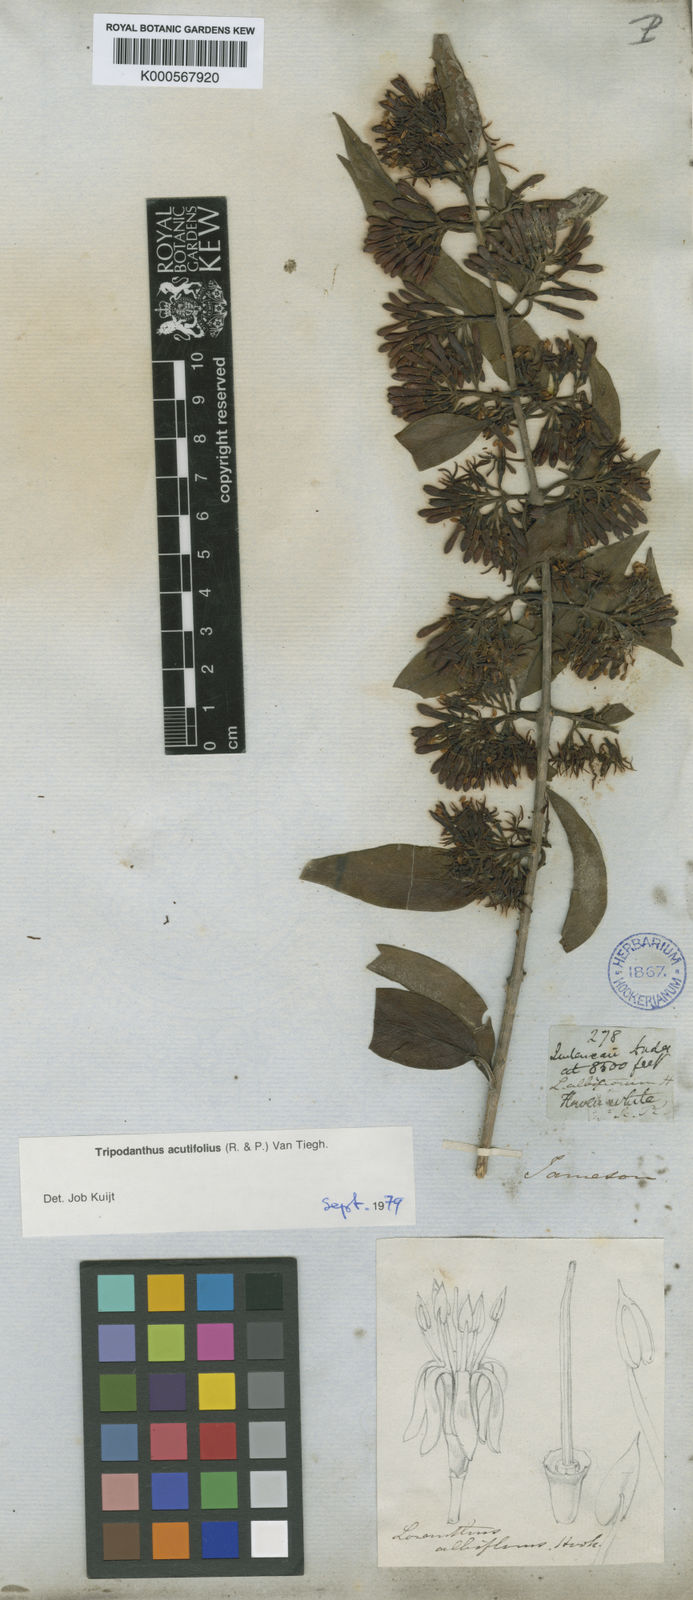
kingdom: Plantae
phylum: Tracheophyta
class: Magnoliopsida
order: Santalales
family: Loranthaceae
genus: Tripodanthus
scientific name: Tripodanthus acutifolius
